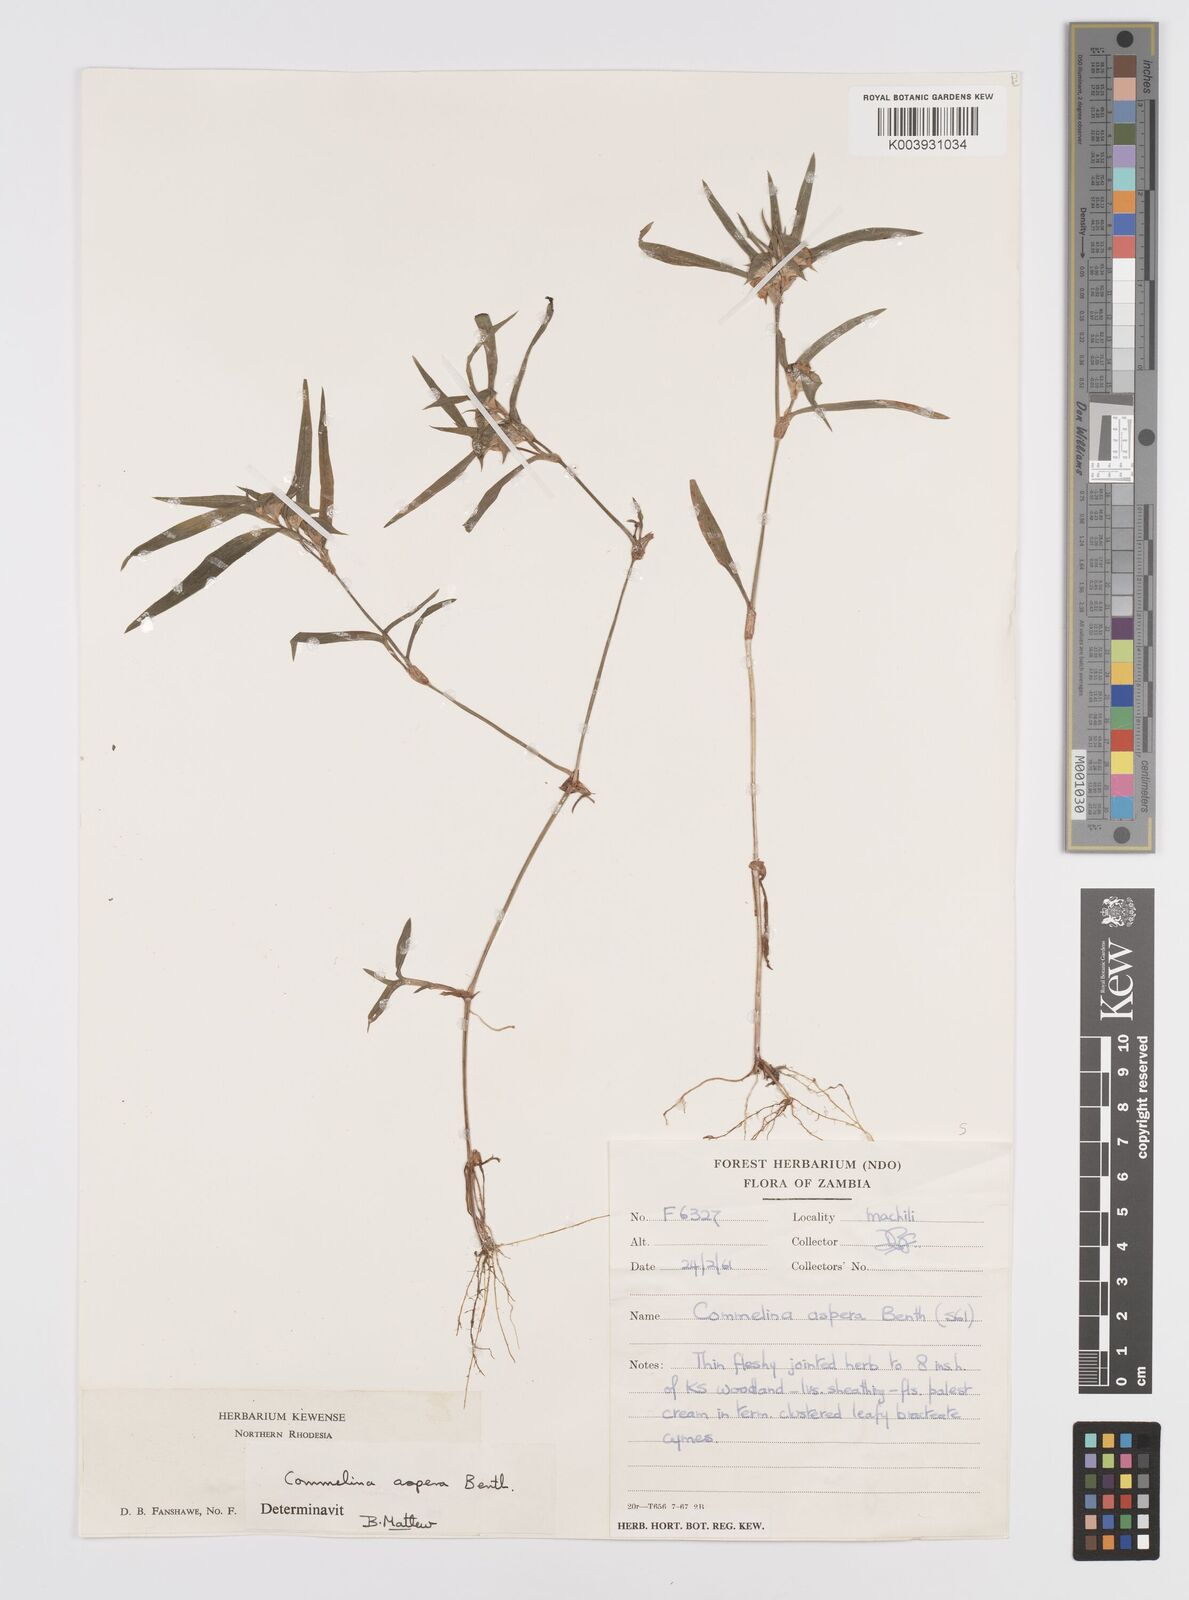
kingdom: Plantae
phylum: Tracheophyta
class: Liliopsida
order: Commelinales
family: Commelinaceae
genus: Commelina
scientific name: Commelina aspera
